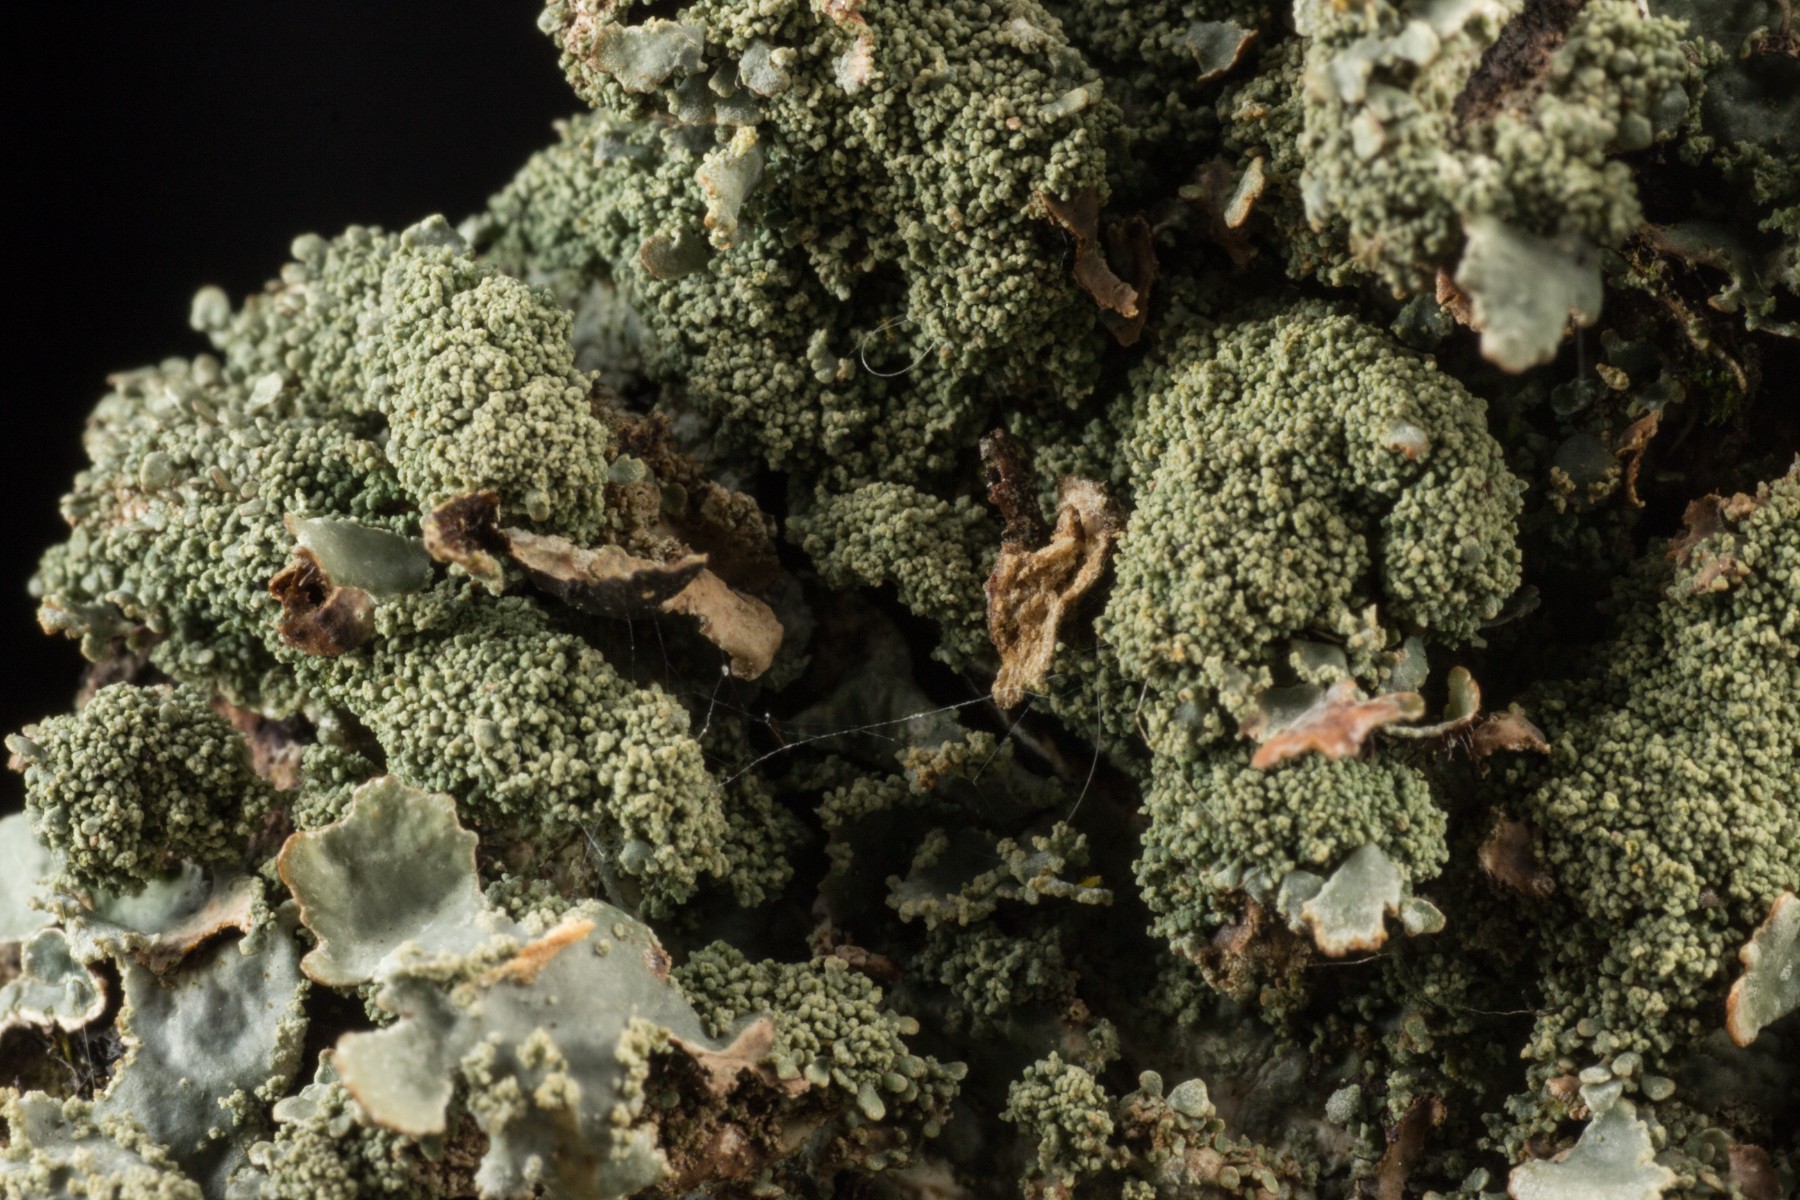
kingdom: Fungi
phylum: Ascomycota
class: Lecanoromycetes
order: Lecanorales
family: Parmeliaceae
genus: Parmelia
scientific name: Parmelia submontana
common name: langlobet skållav
